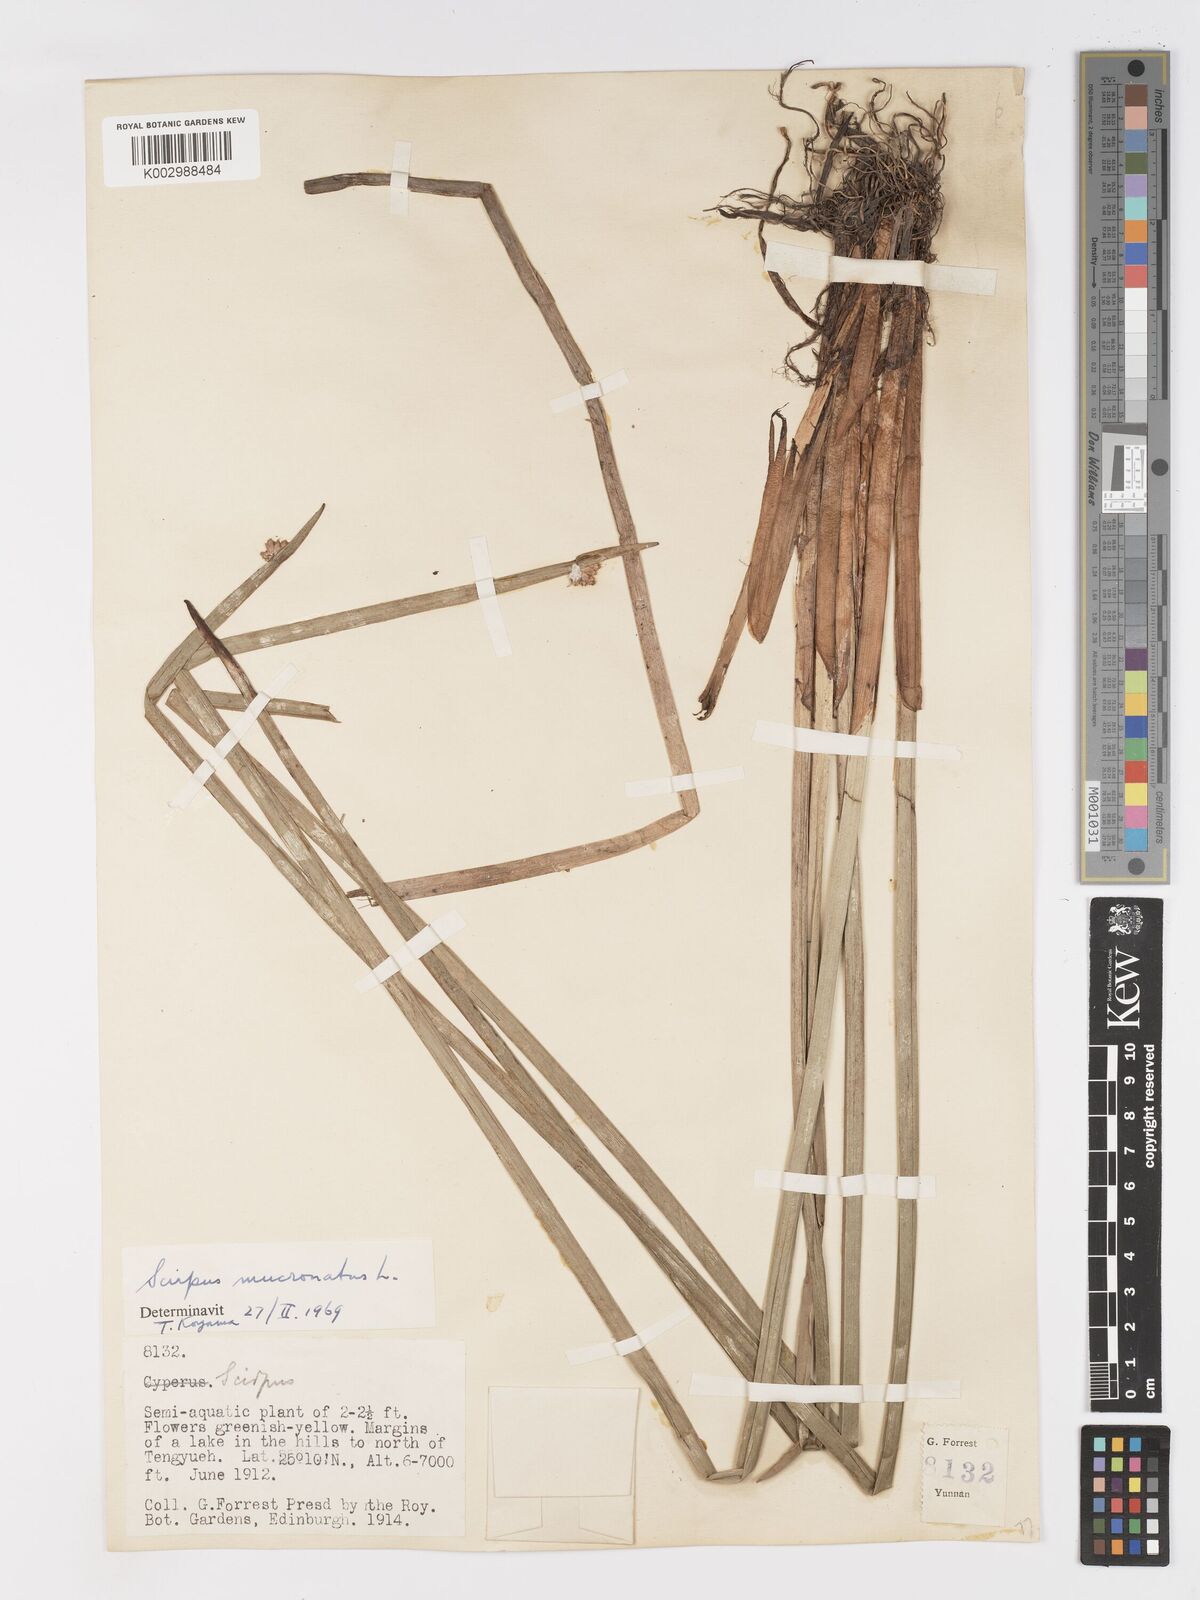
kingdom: Plantae
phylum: Tracheophyta
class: Liliopsida
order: Poales
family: Cyperaceae
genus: Schoenoplectiella
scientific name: Schoenoplectiella mucronata
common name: Bog bulrush
